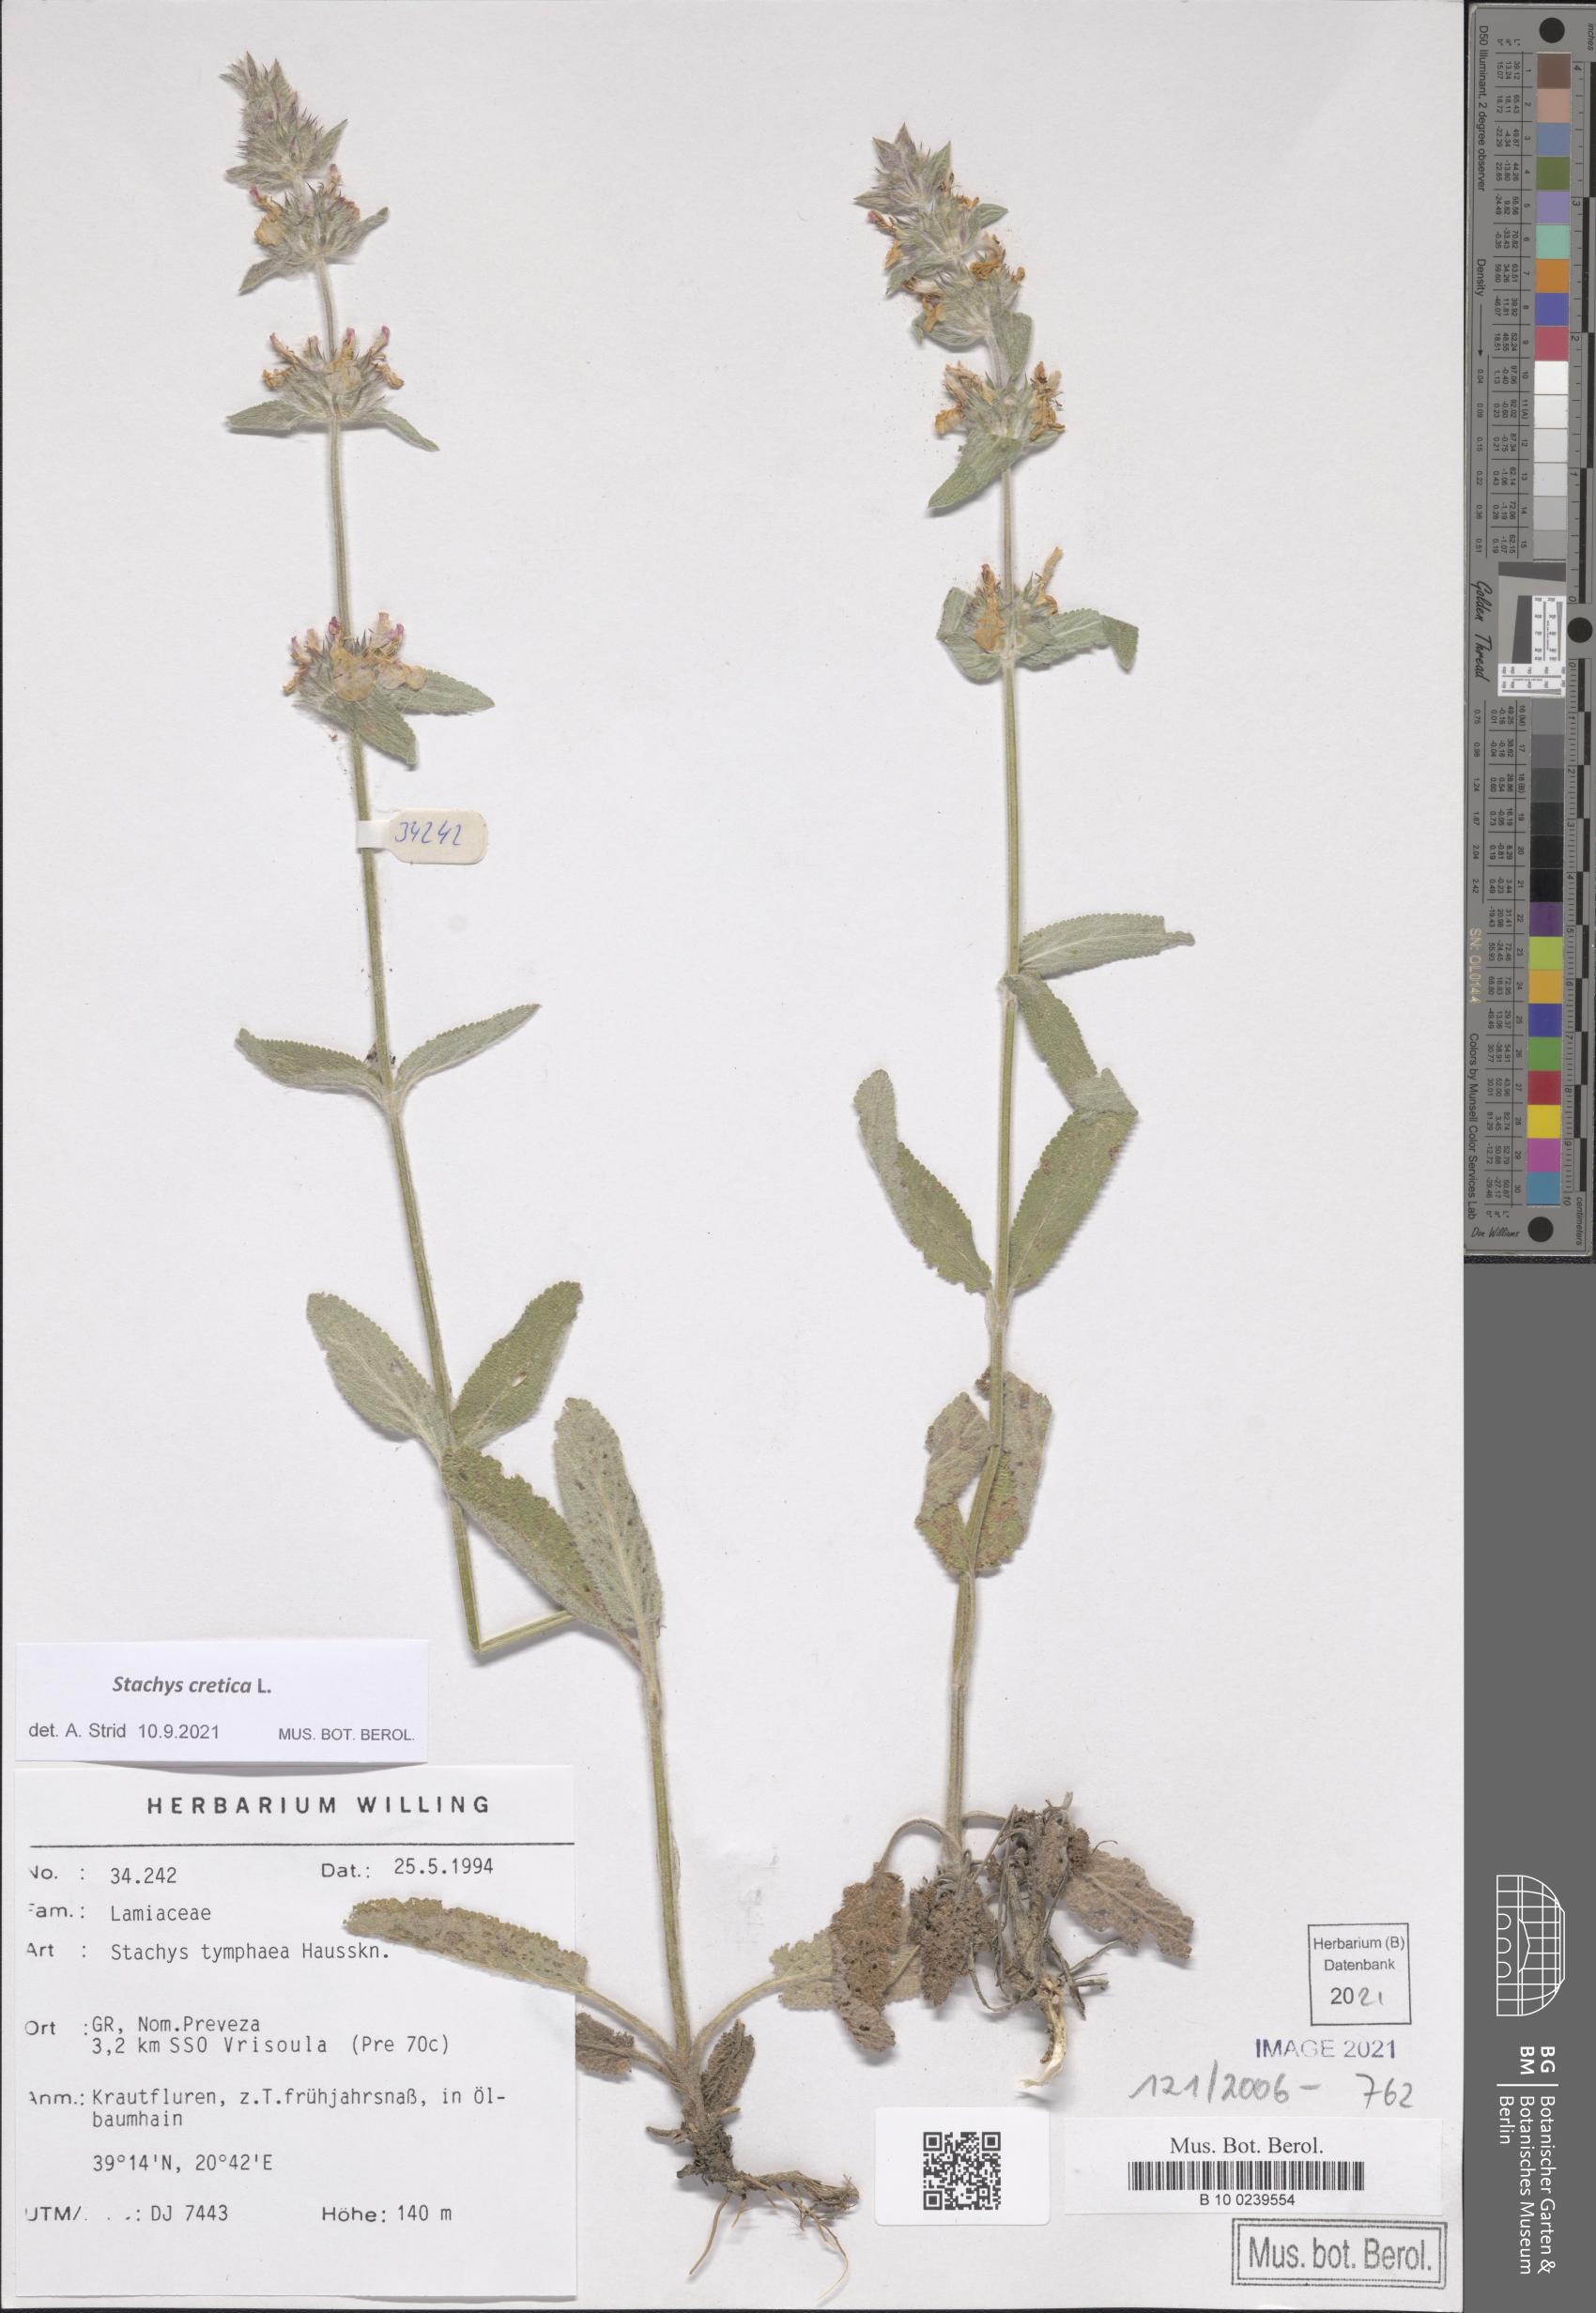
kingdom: Plantae
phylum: Tracheophyta
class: Magnoliopsida
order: Lamiales
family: Lamiaceae
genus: Stachys
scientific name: Stachys cretica
